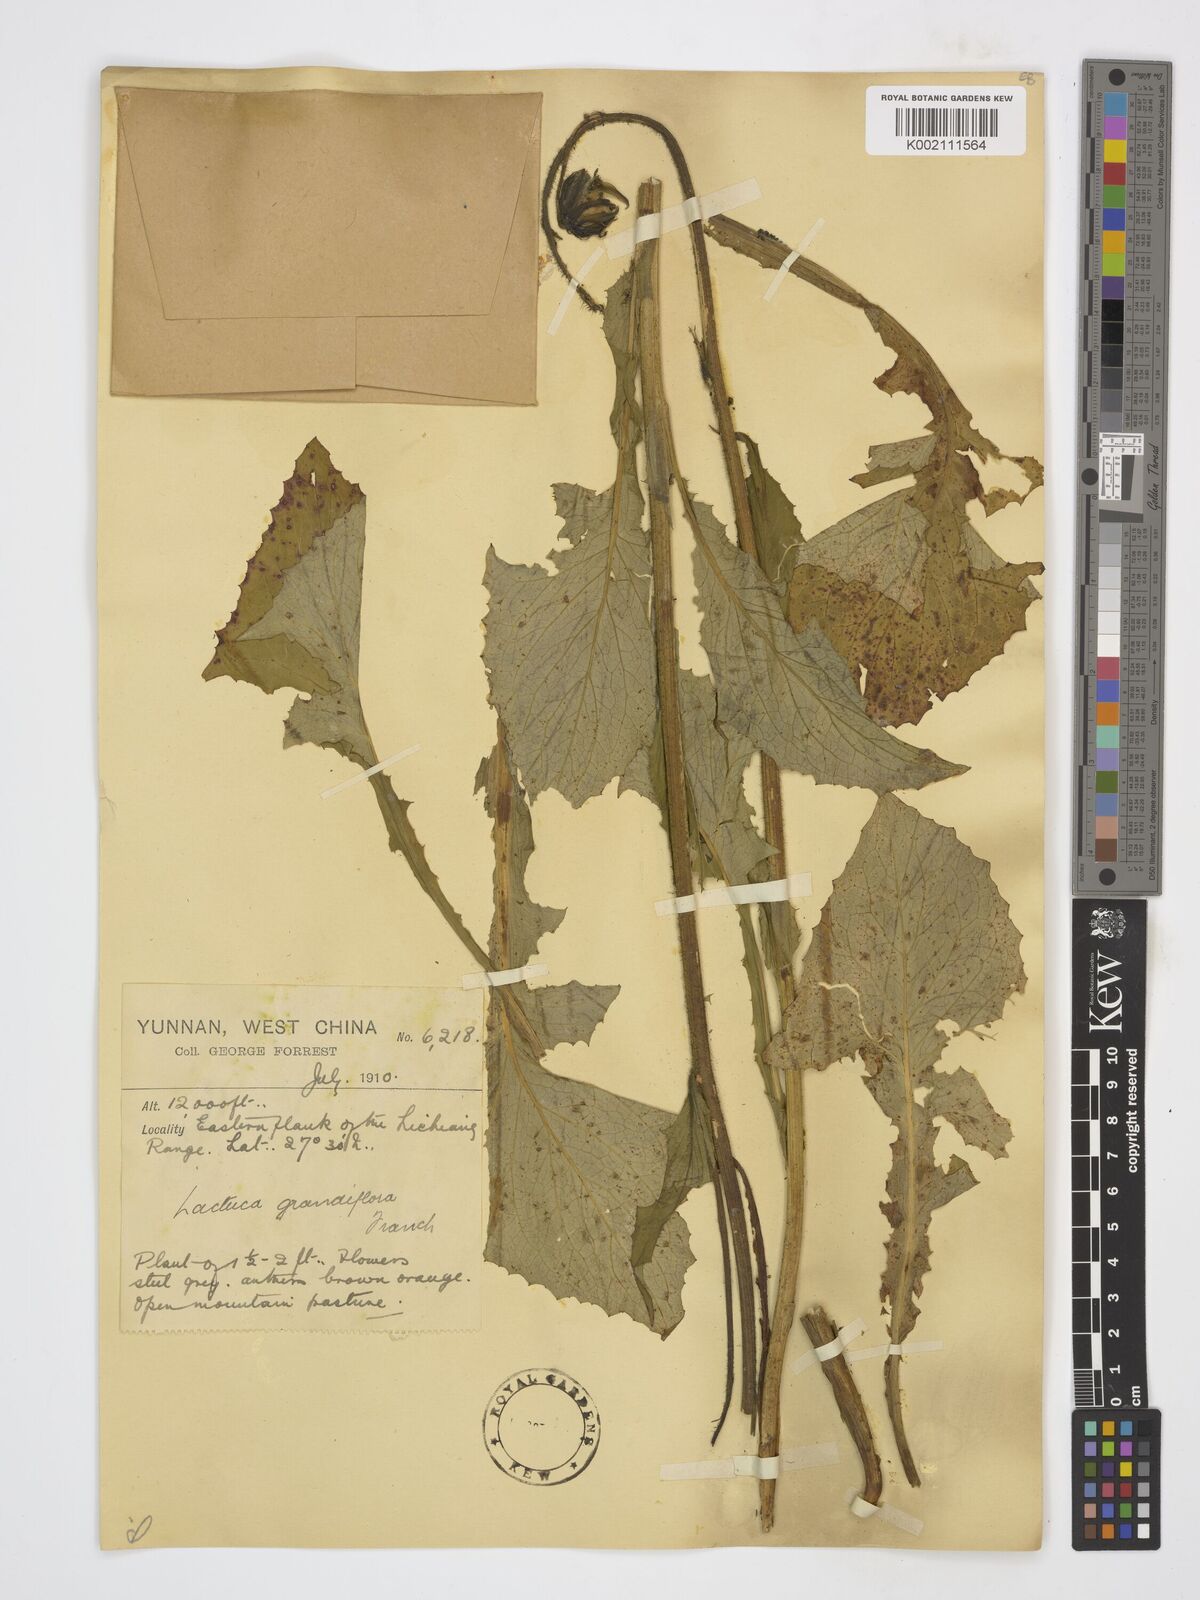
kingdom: Plantae
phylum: Tracheophyta
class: Magnoliopsida
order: Asterales
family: Asteraceae
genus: Melanoseris
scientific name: Melanoseris atropurpurea
